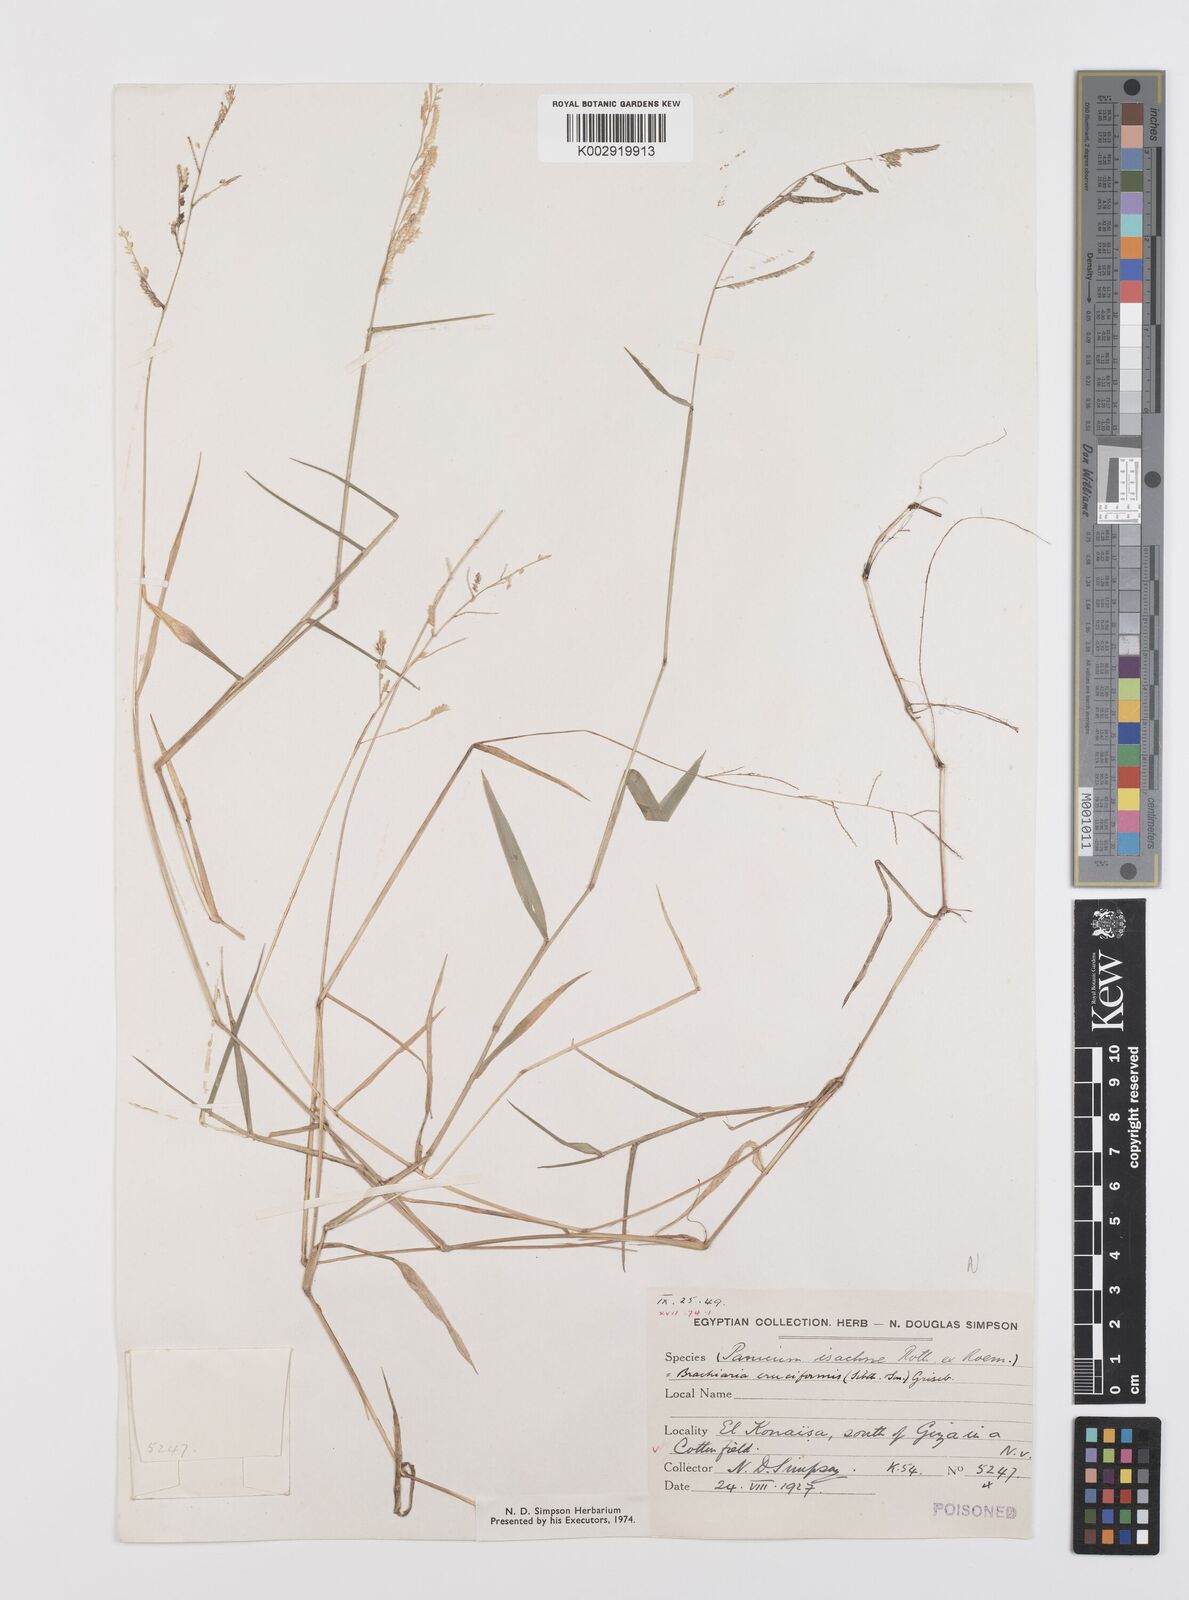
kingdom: Plantae
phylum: Tracheophyta
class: Liliopsida
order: Poales
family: Poaceae
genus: Moorochloa
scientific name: Moorochloa eruciformis
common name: Sweet signalgrass
